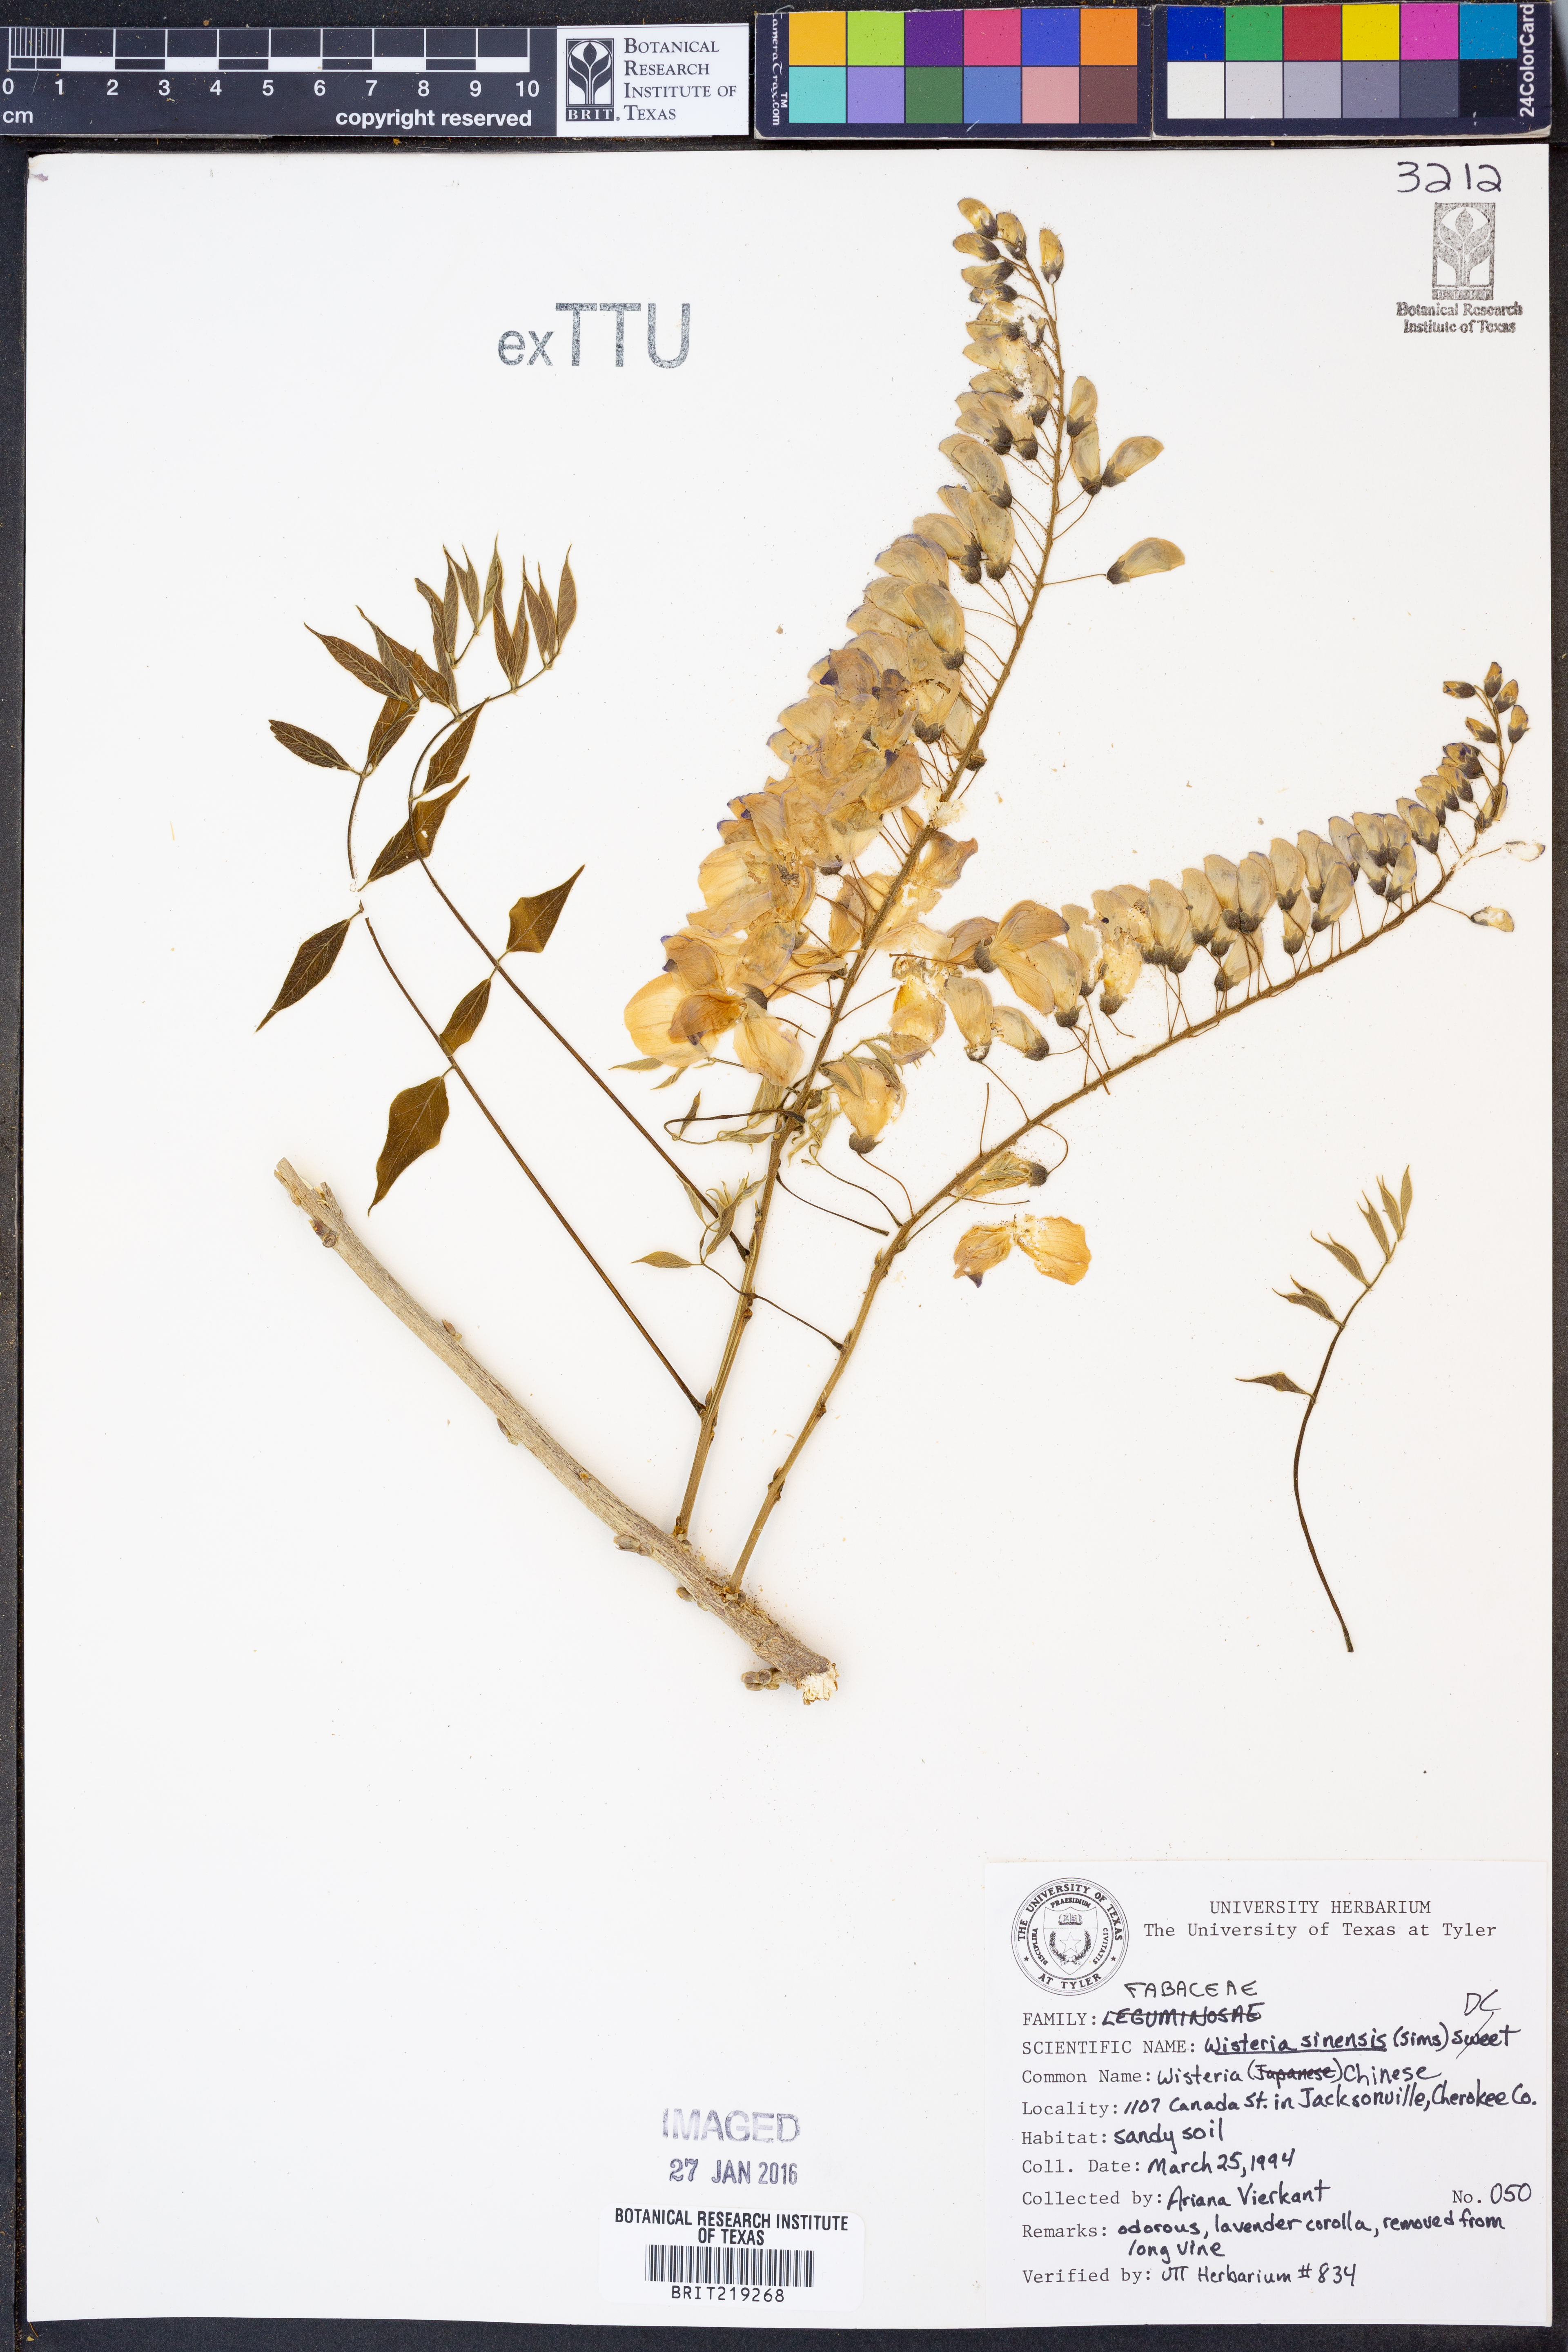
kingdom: Plantae
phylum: Tracheophyta
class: Magnoliopsida
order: Fabales
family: Fabaceae
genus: Wisteria
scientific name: Wisteria sinensis
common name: Chinese wisteria
